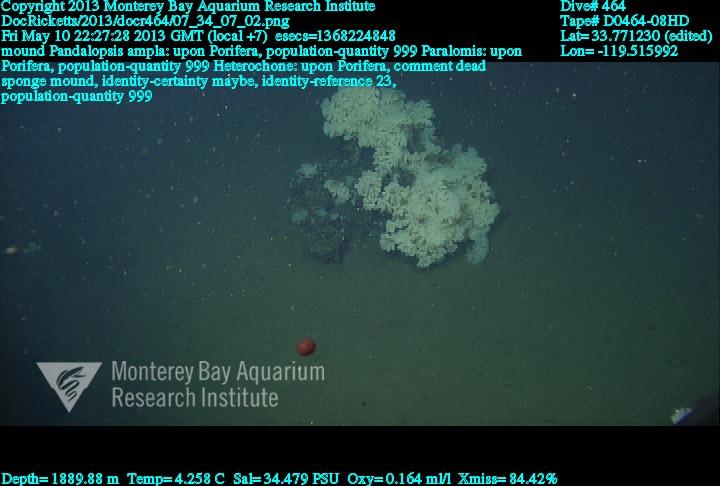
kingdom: Animalia
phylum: Porifera
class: Hexactinellida
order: Sceptrulophora
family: Aphrocallistidae
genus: Heterochone
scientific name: Heterochone
